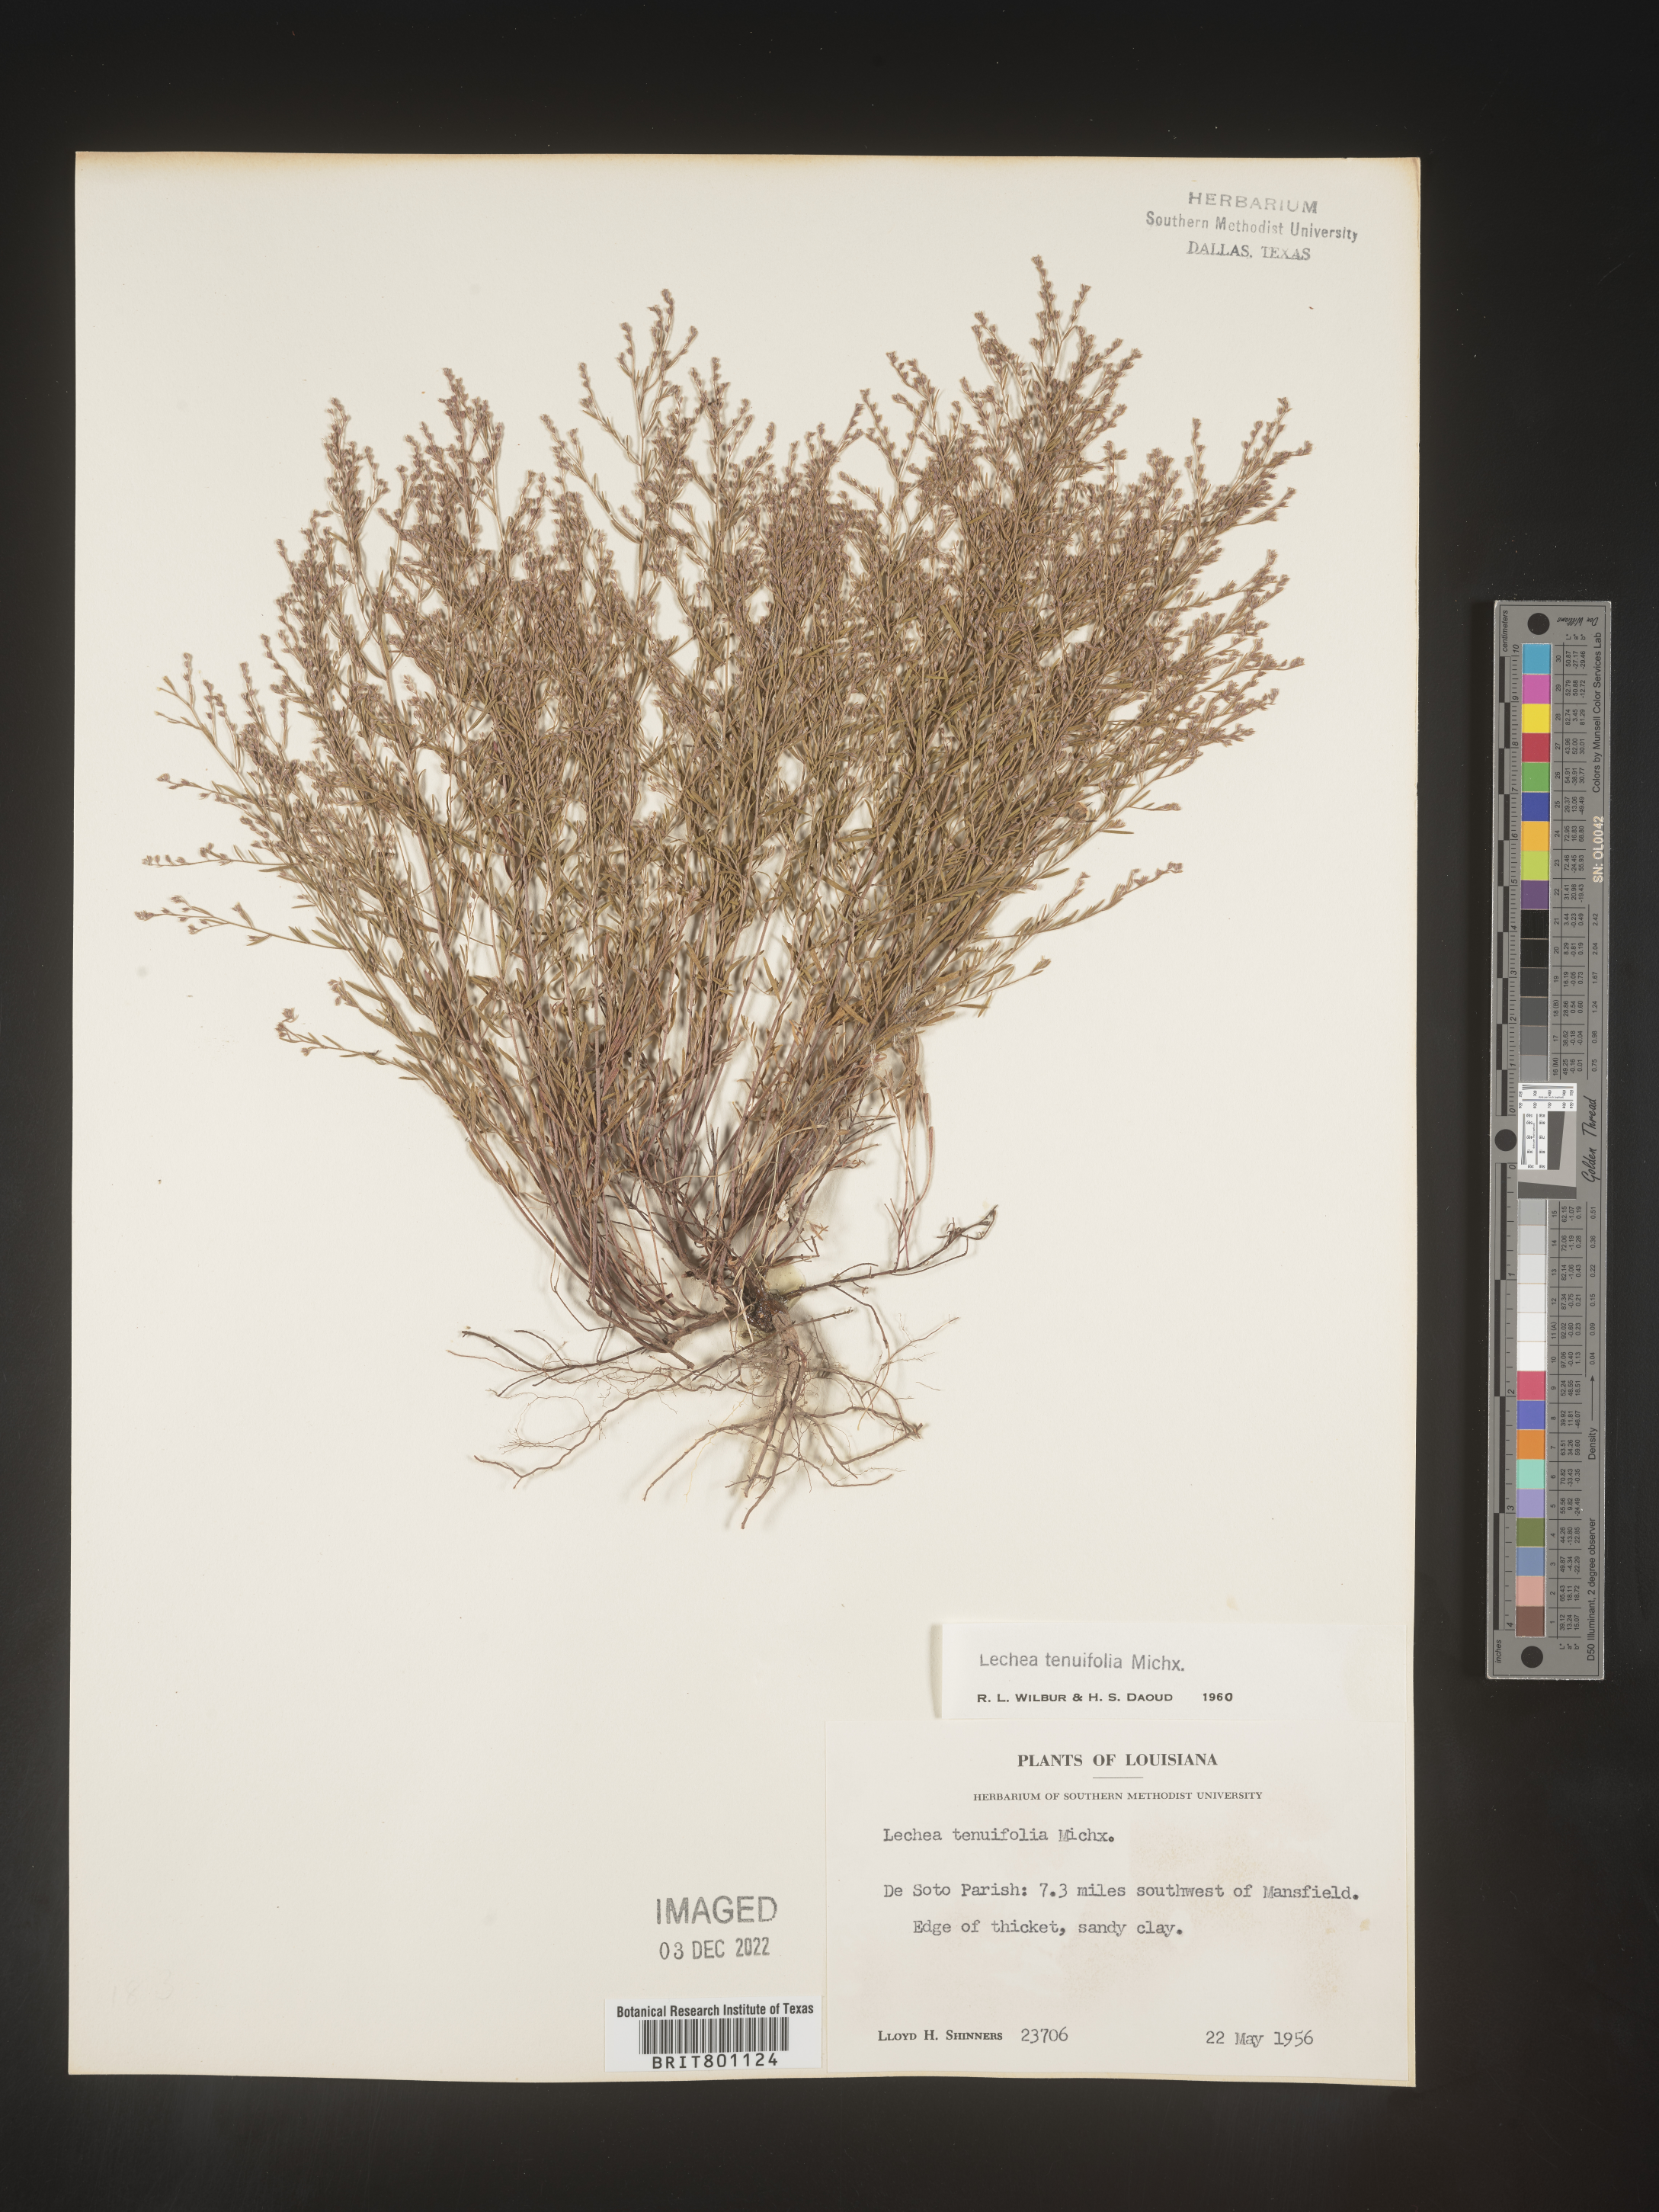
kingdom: Plantae
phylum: Tracheophyta
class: Magnoliopsida
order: Malvales
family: Cistaceae
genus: Lechea
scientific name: Lechea tenuifolia
